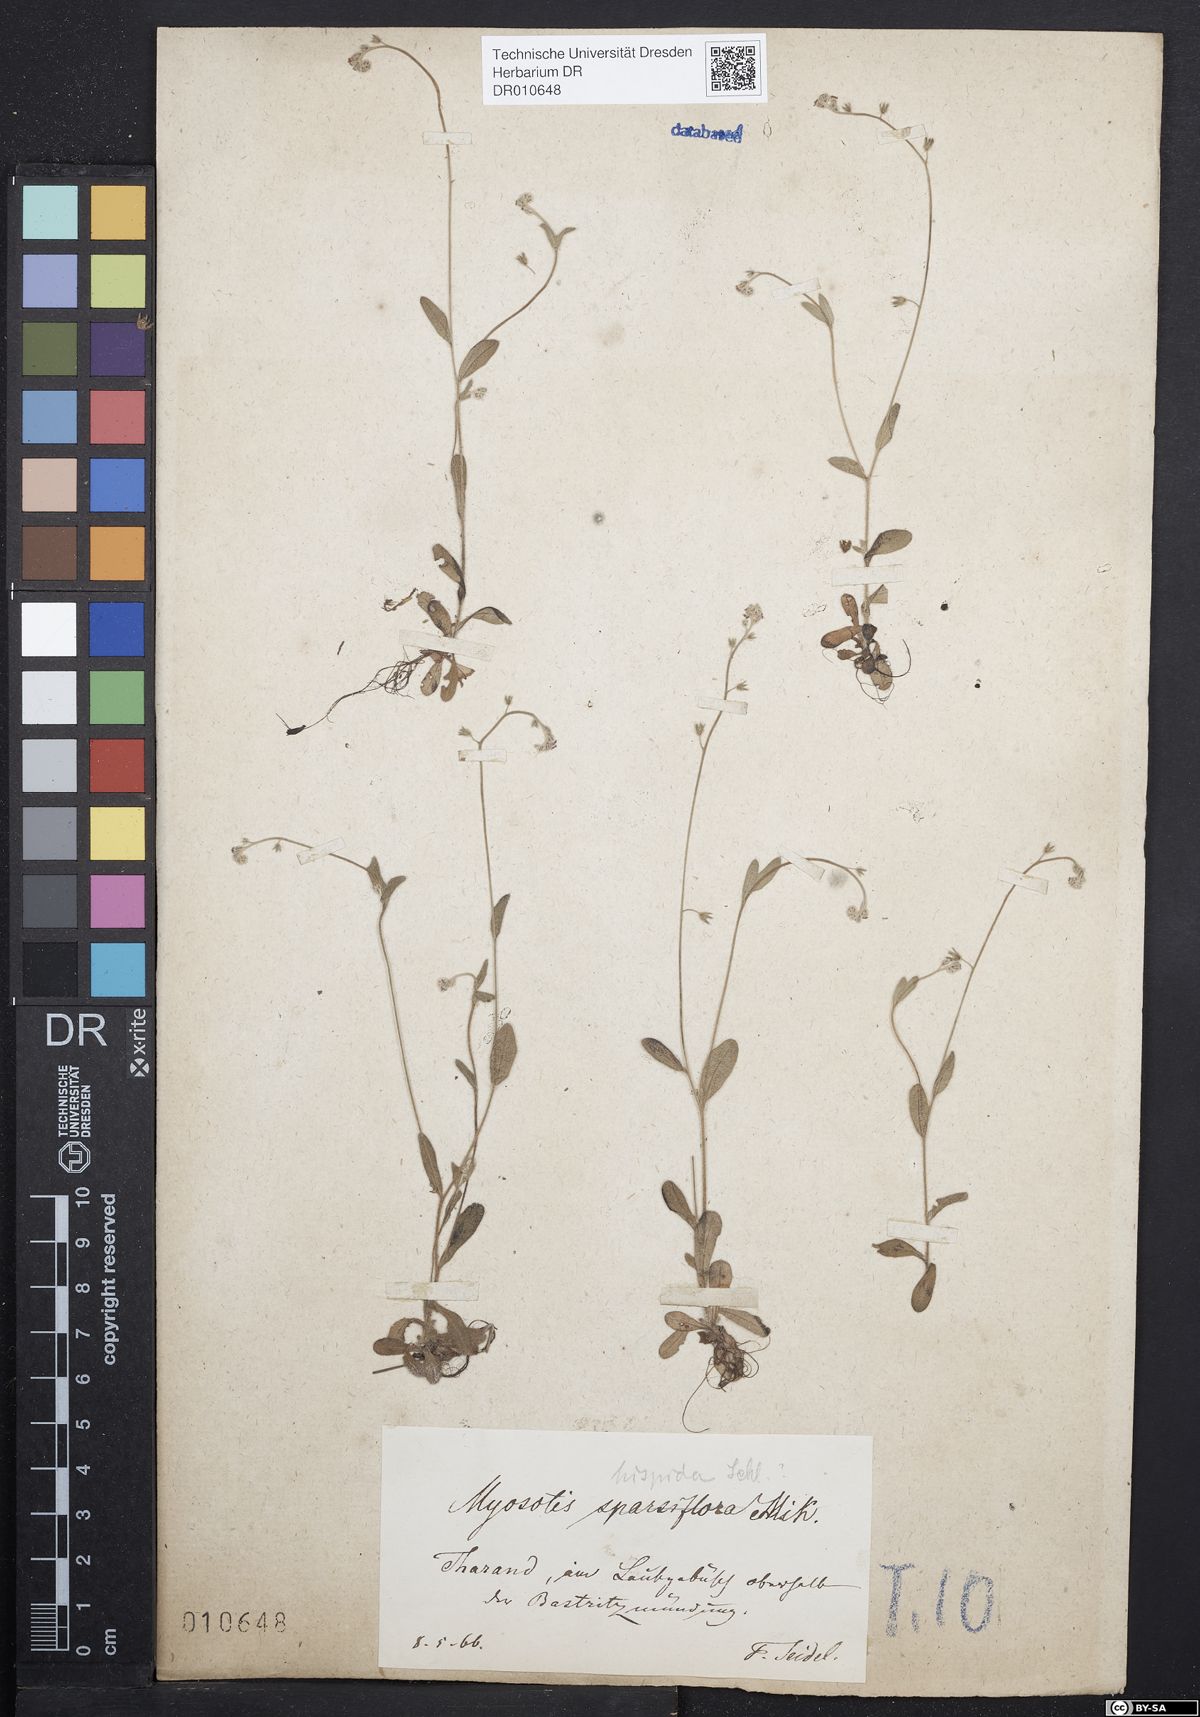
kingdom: Plantae
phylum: Tracheophyta
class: Magnoliopsida
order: Boraginales
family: Boraginaceae
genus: Myosotis
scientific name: Myosotis ramosissima
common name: Early forget-me-not
